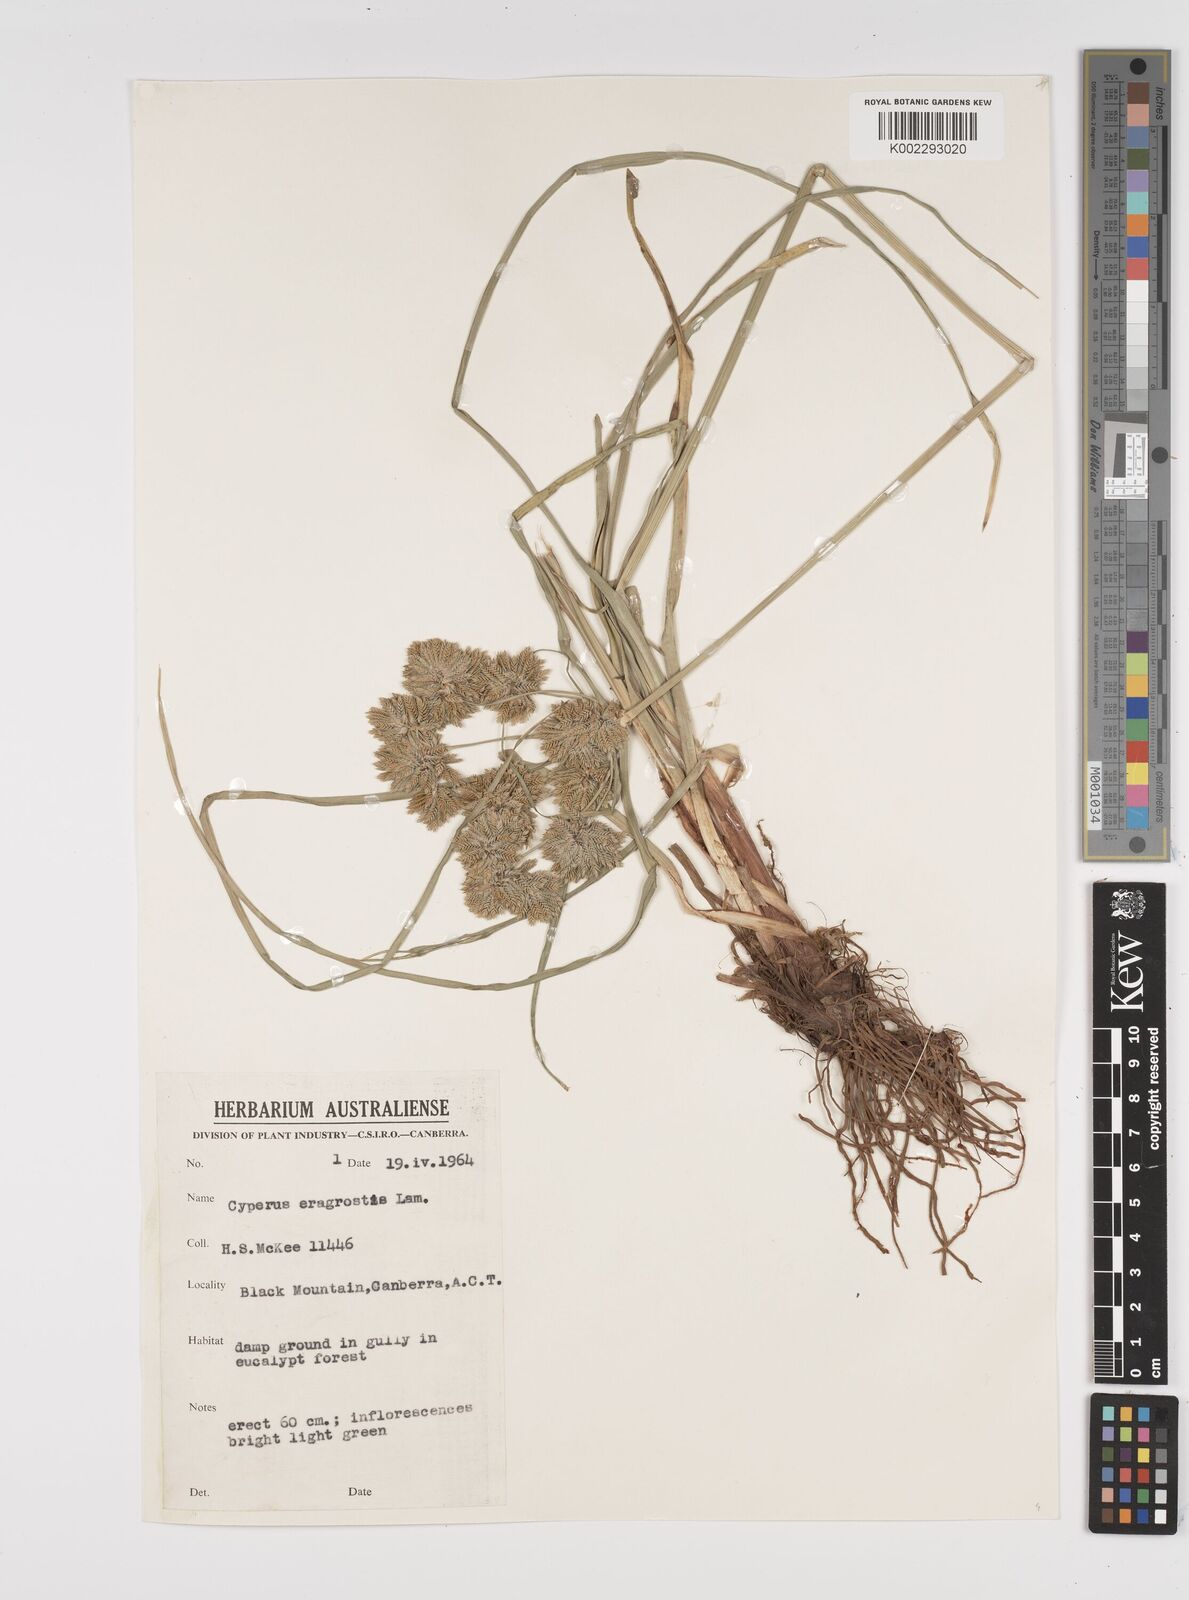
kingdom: Plantae
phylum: Tracheophyta
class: Liliopsida
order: Poales
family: Cyperaceae
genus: Cyperus
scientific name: Cyperus eragrostis
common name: Tall flatsedge
